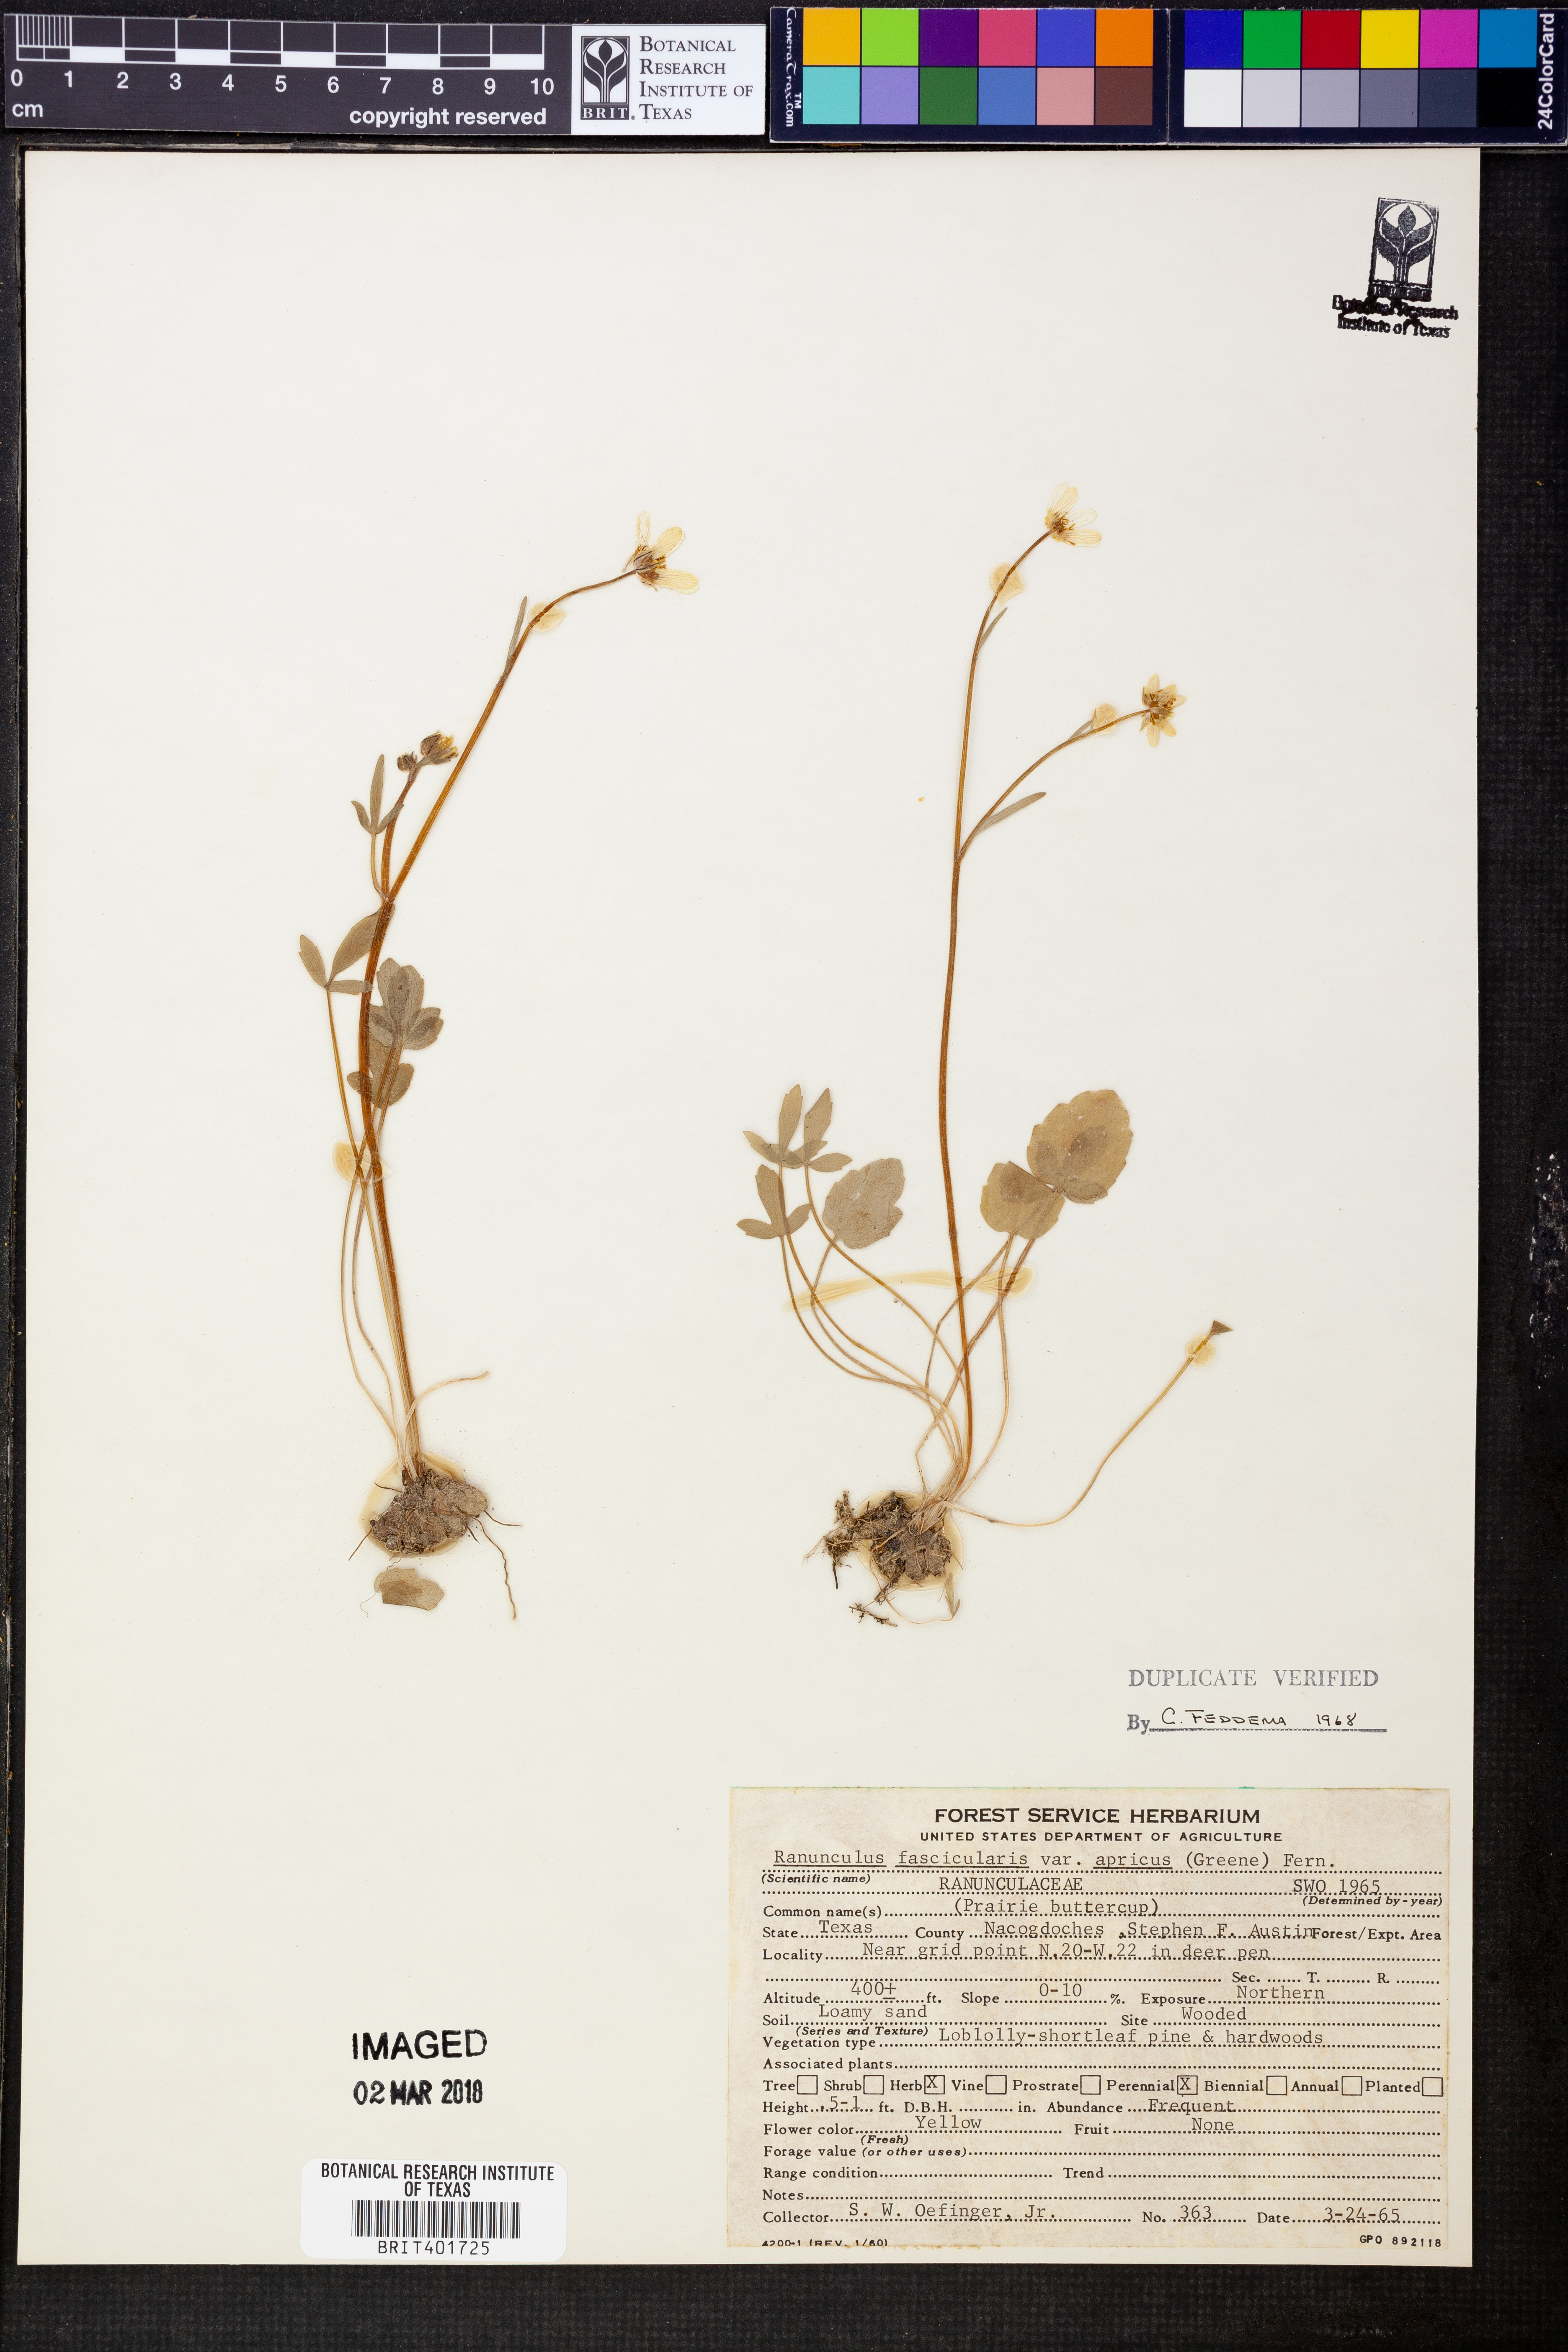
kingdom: Plantae
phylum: Tracheophyta
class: Magnoliopsida
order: Ranunculales
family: Ranunculaceae
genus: Ranunculus
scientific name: Ranunculus fascicularis
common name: Early buttercup
